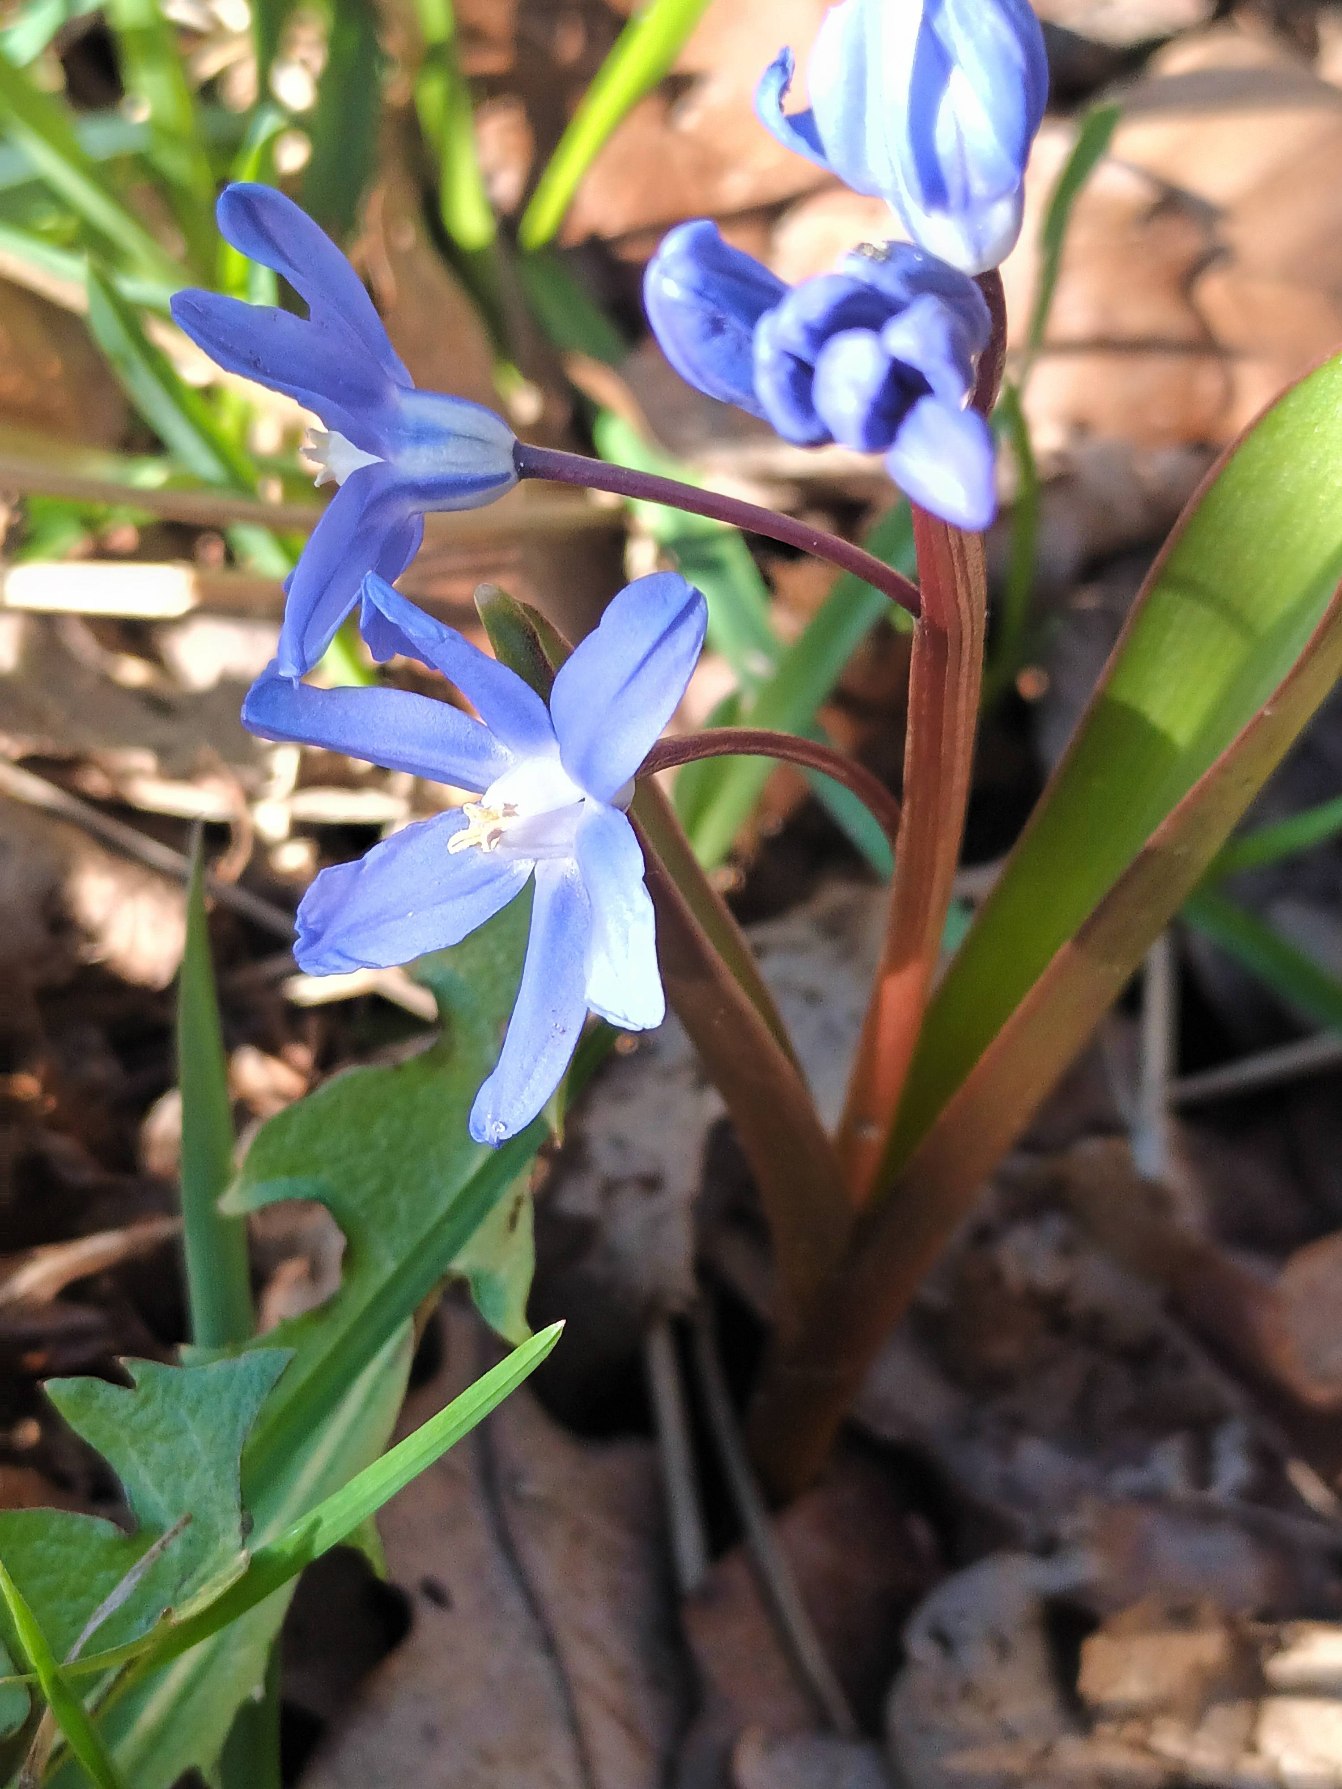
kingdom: Plantae
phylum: Tracheophyta
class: Liliopsida
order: Asparagales
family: Asparagaceae
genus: Scilla
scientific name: Scilla sardensis
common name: Liden snepryd
